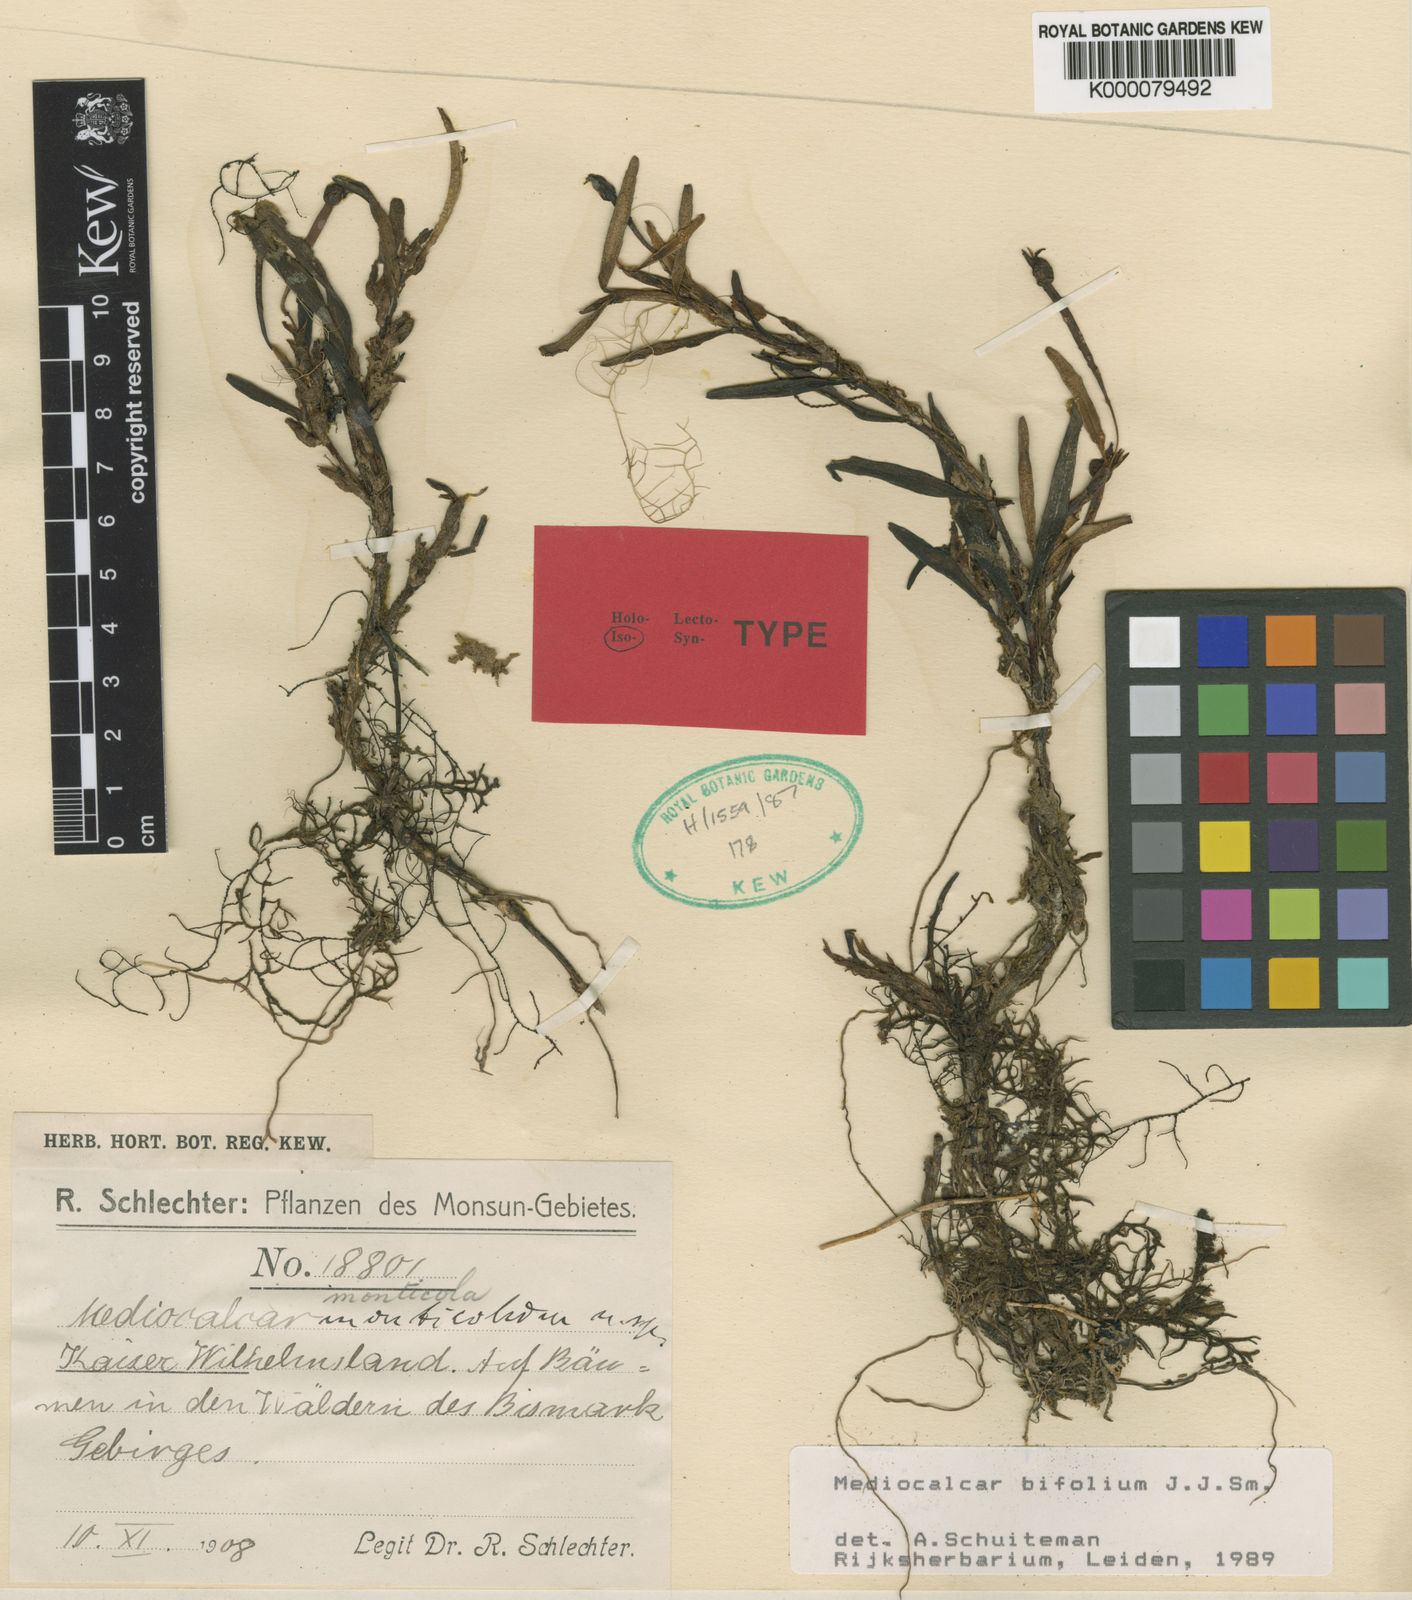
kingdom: Plantae
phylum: Tracheophyta
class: Liliopsida
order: Asparagales
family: Orchidaceae
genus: Mediocalcar
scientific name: Mediocalcar bifolium
